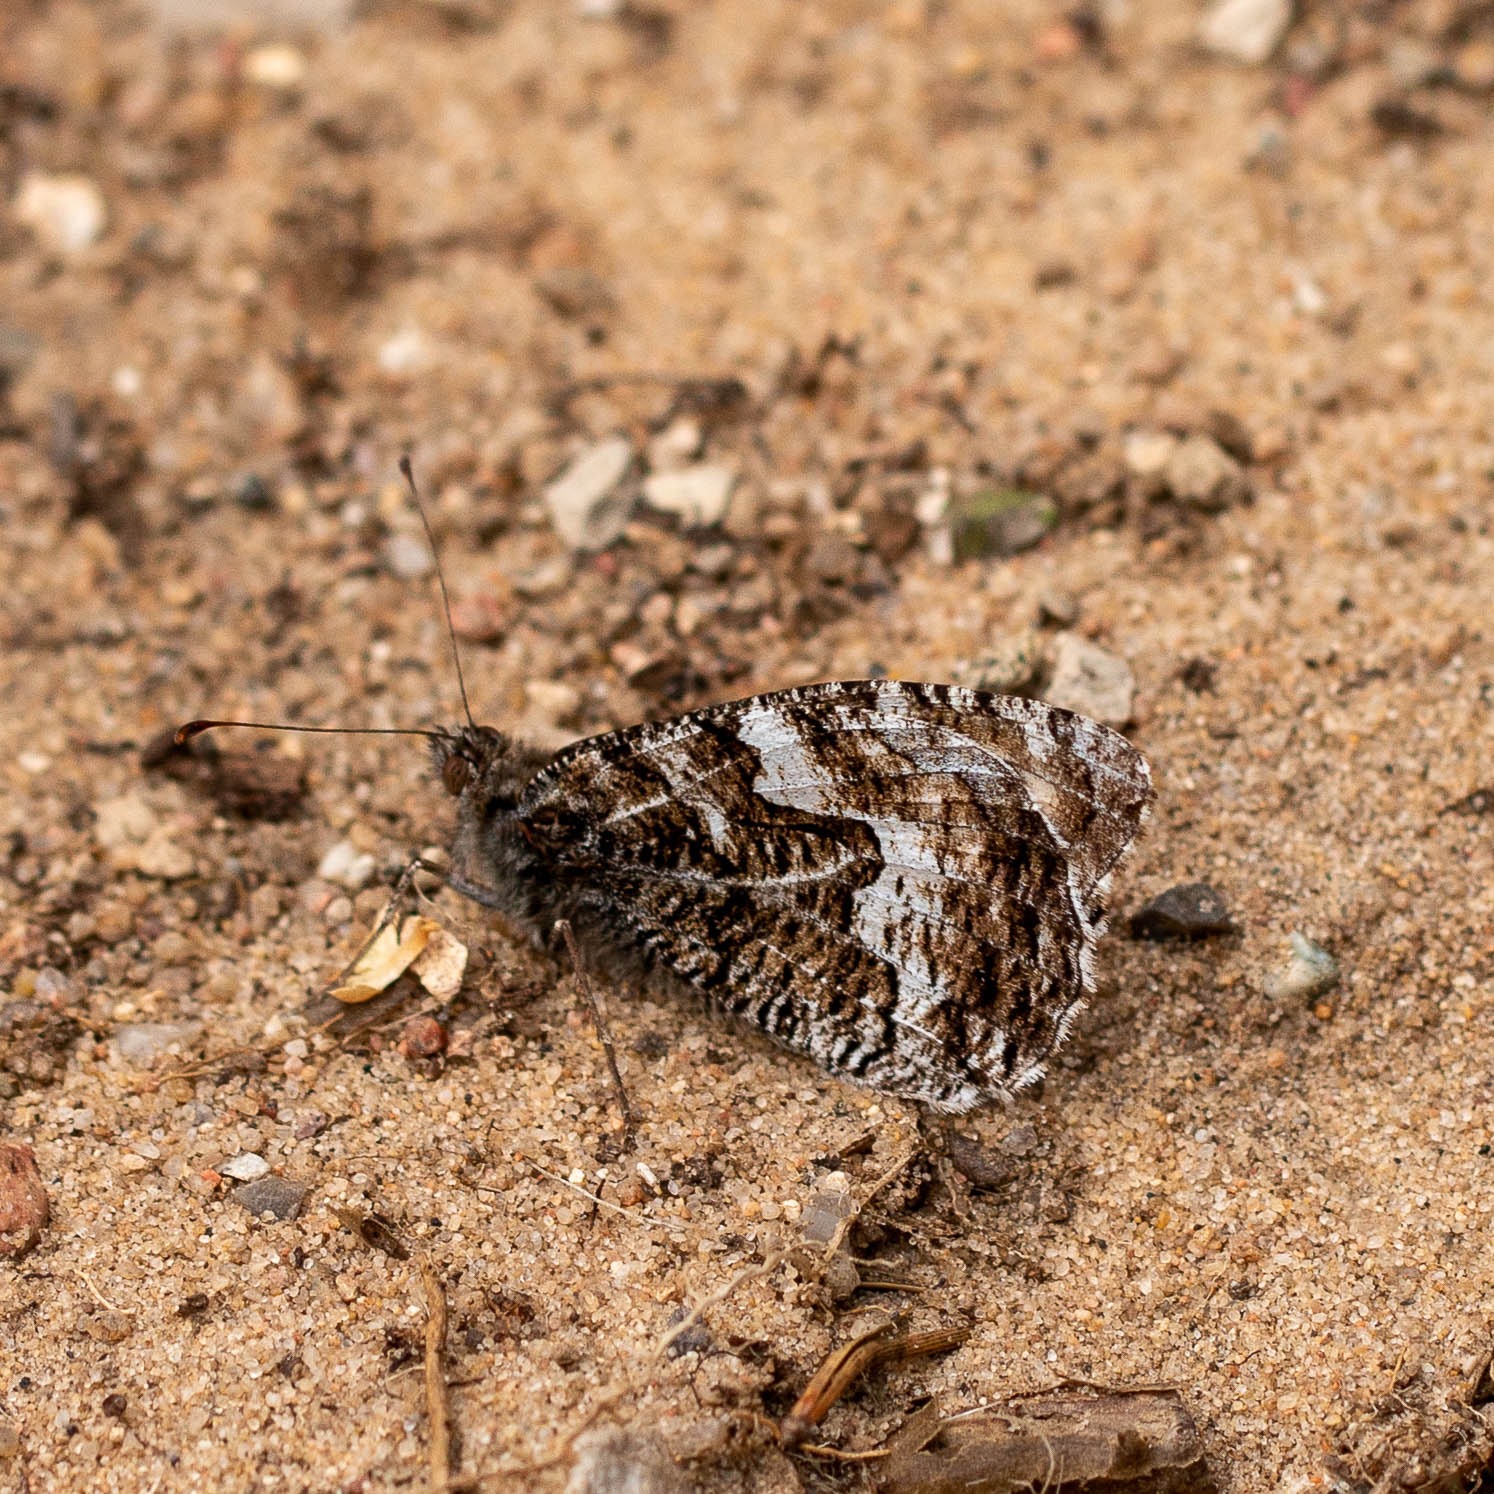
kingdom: Animalia
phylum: Arthropoda
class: Insecta
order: Lepidoptera
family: Nymphalidae
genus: Hipparchia
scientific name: Hipparchia semele
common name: Sandrandøje
